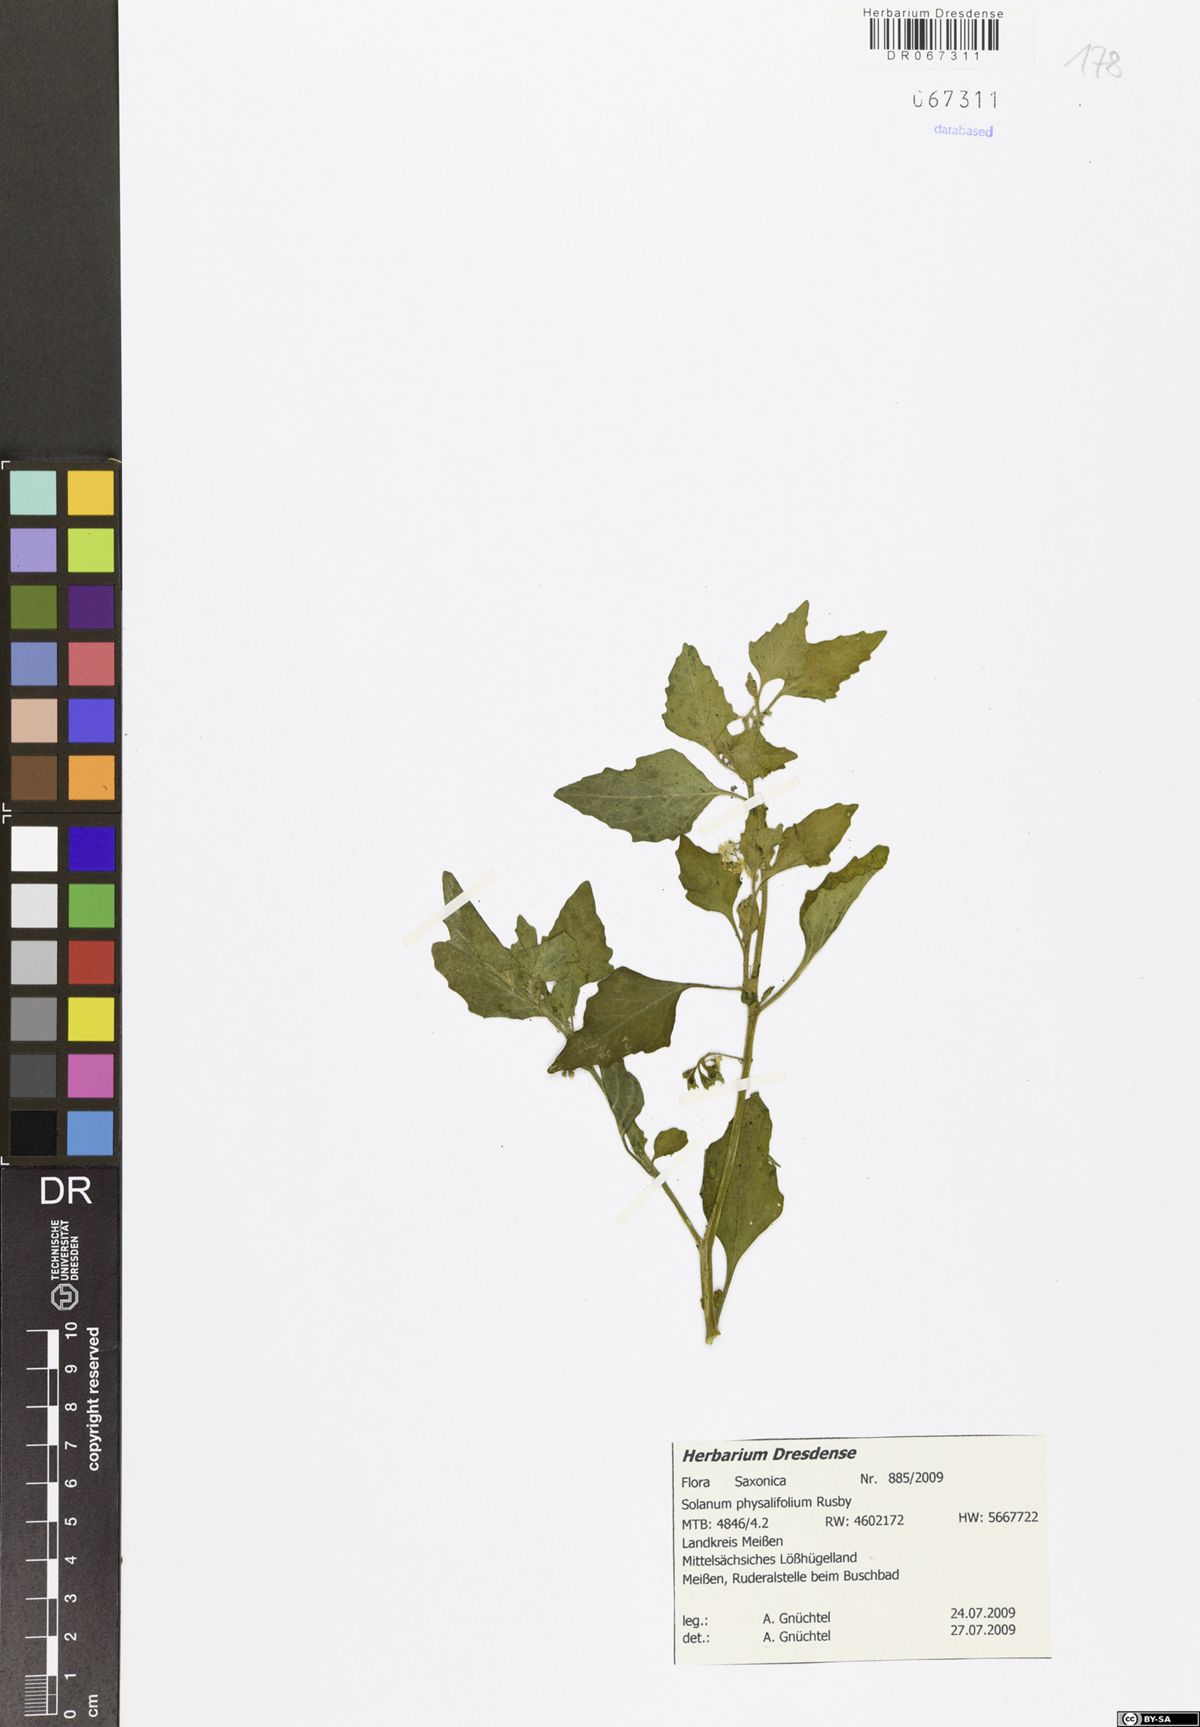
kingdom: Plantae
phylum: Tracheophyta
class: Magnoliopsida
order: Solanales
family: Solanaceae
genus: Solanum
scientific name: Solanum nitidibaccatum
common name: Hairy nightshade
